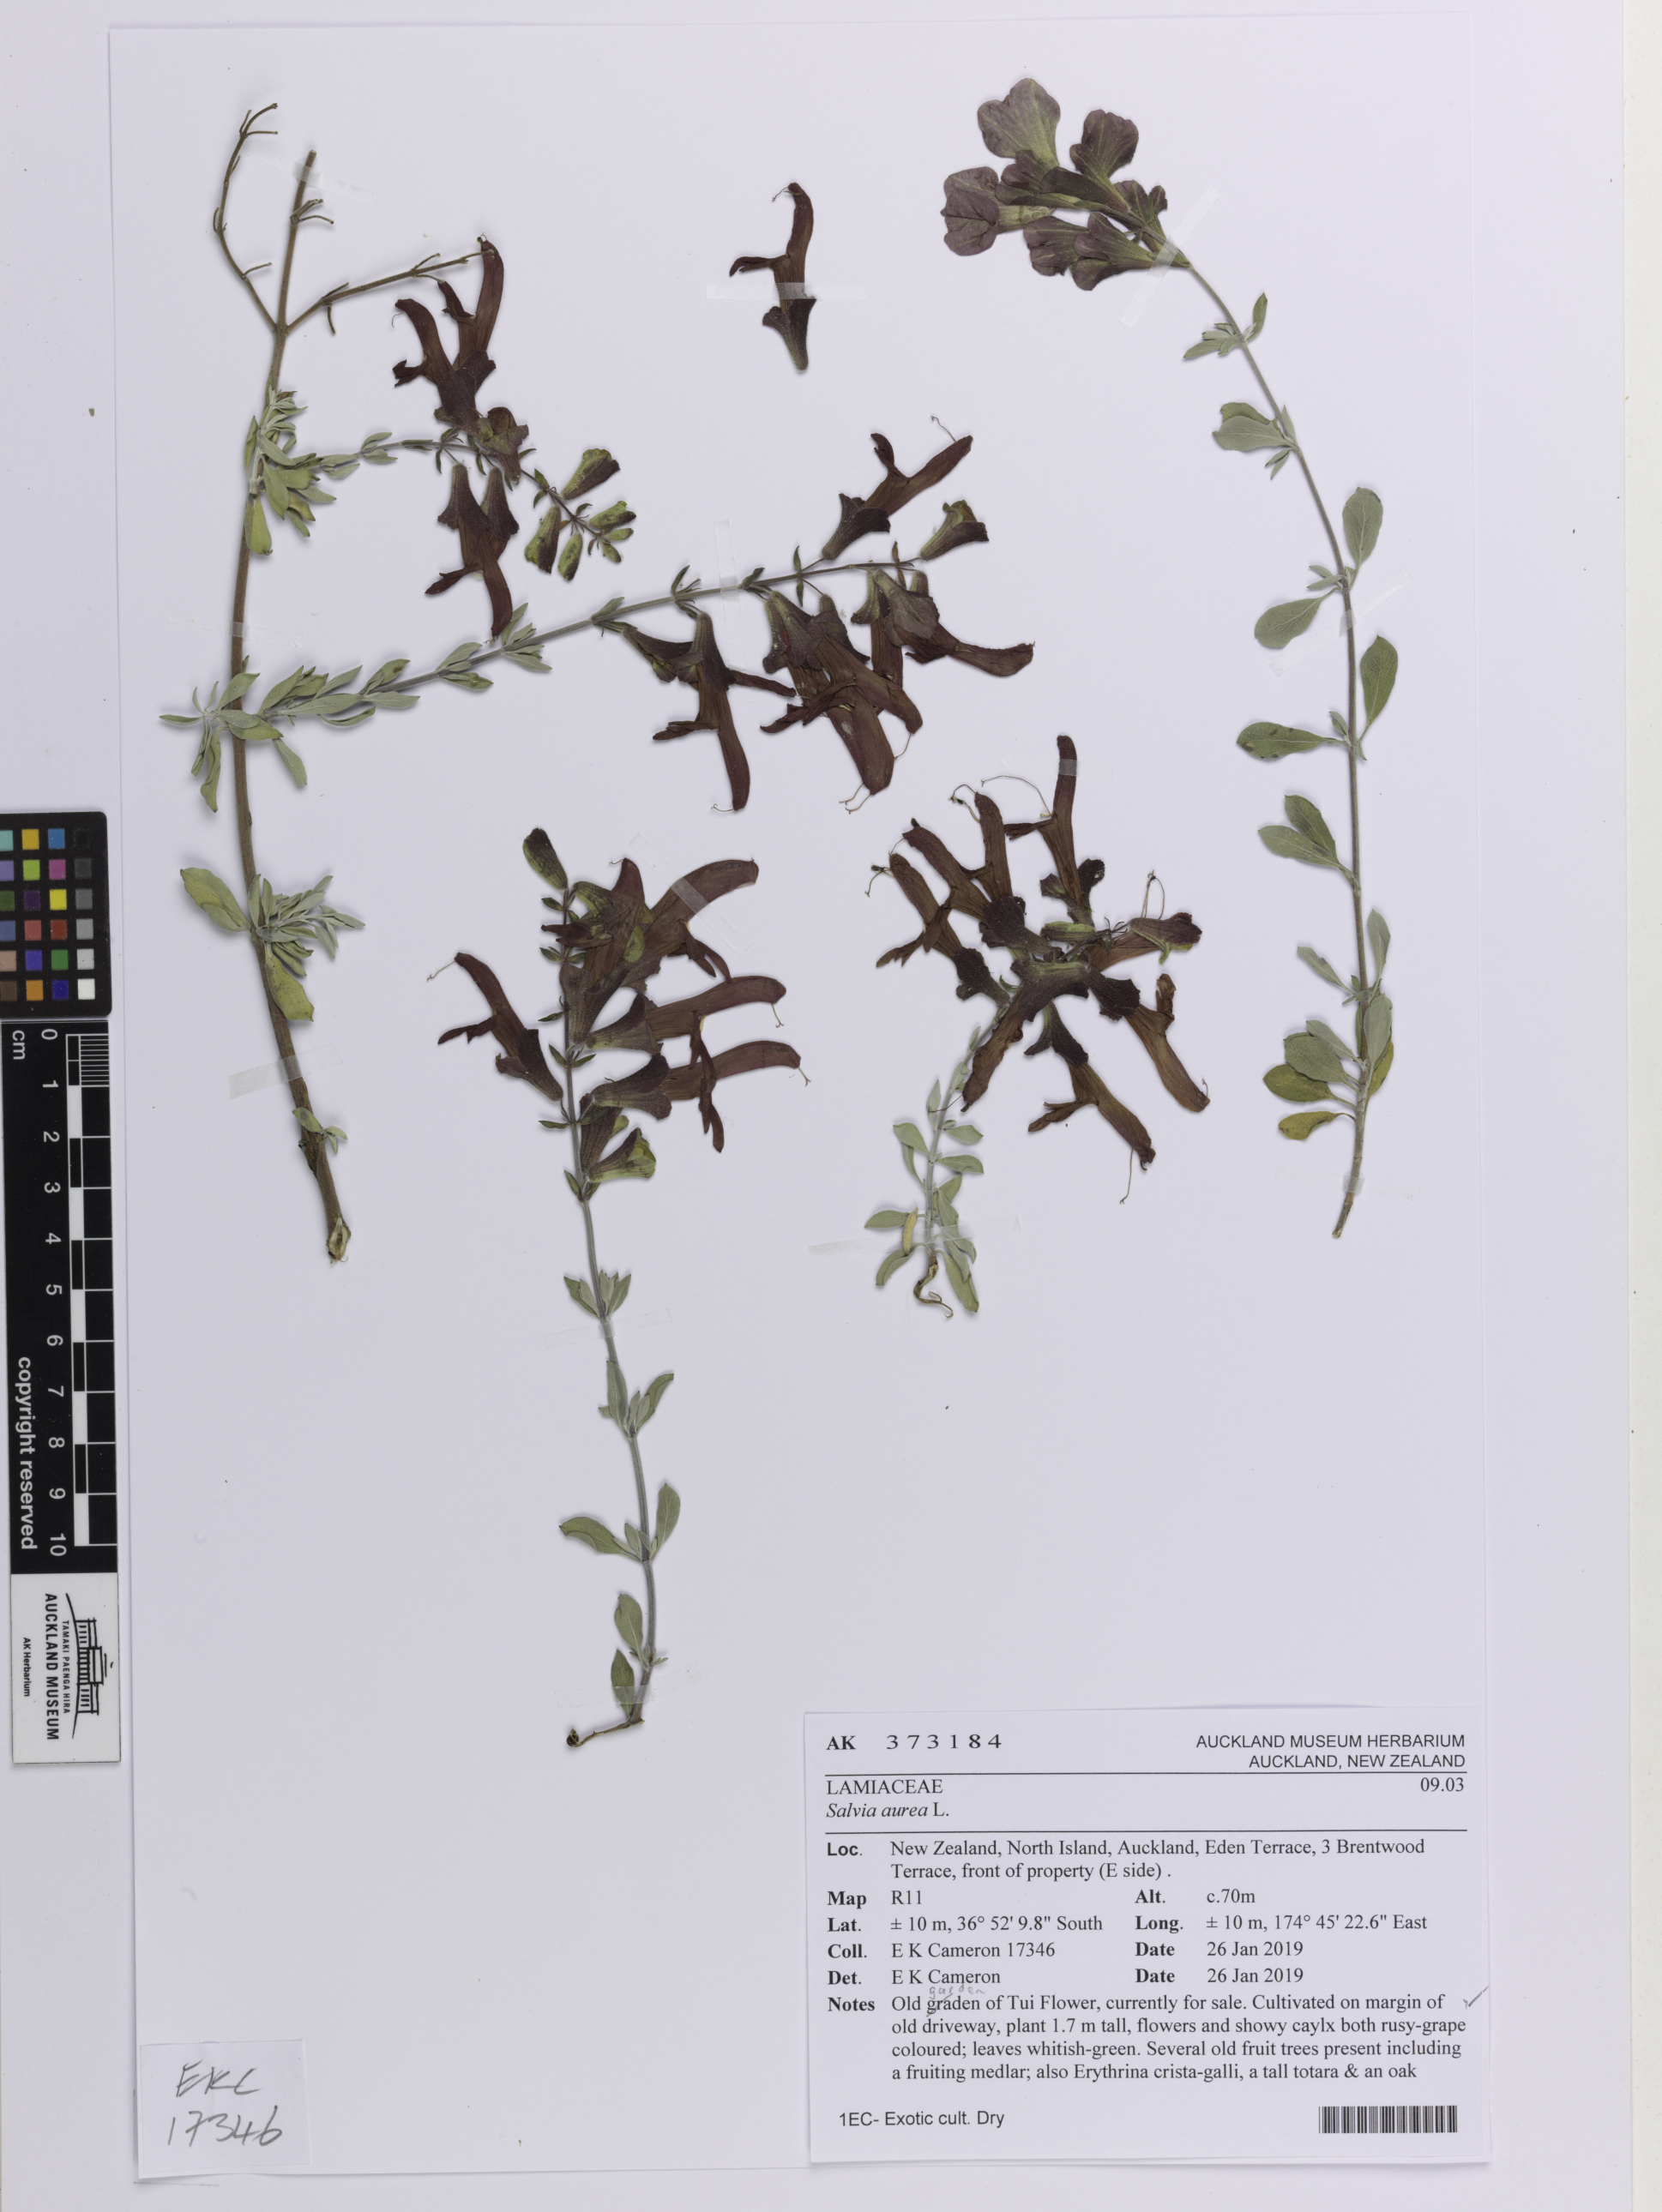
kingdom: Plantae
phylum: Tracheophyta
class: Magnoliopsida
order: Lamiales
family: Lamiaceae
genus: Salvia
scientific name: Salvia aurea
